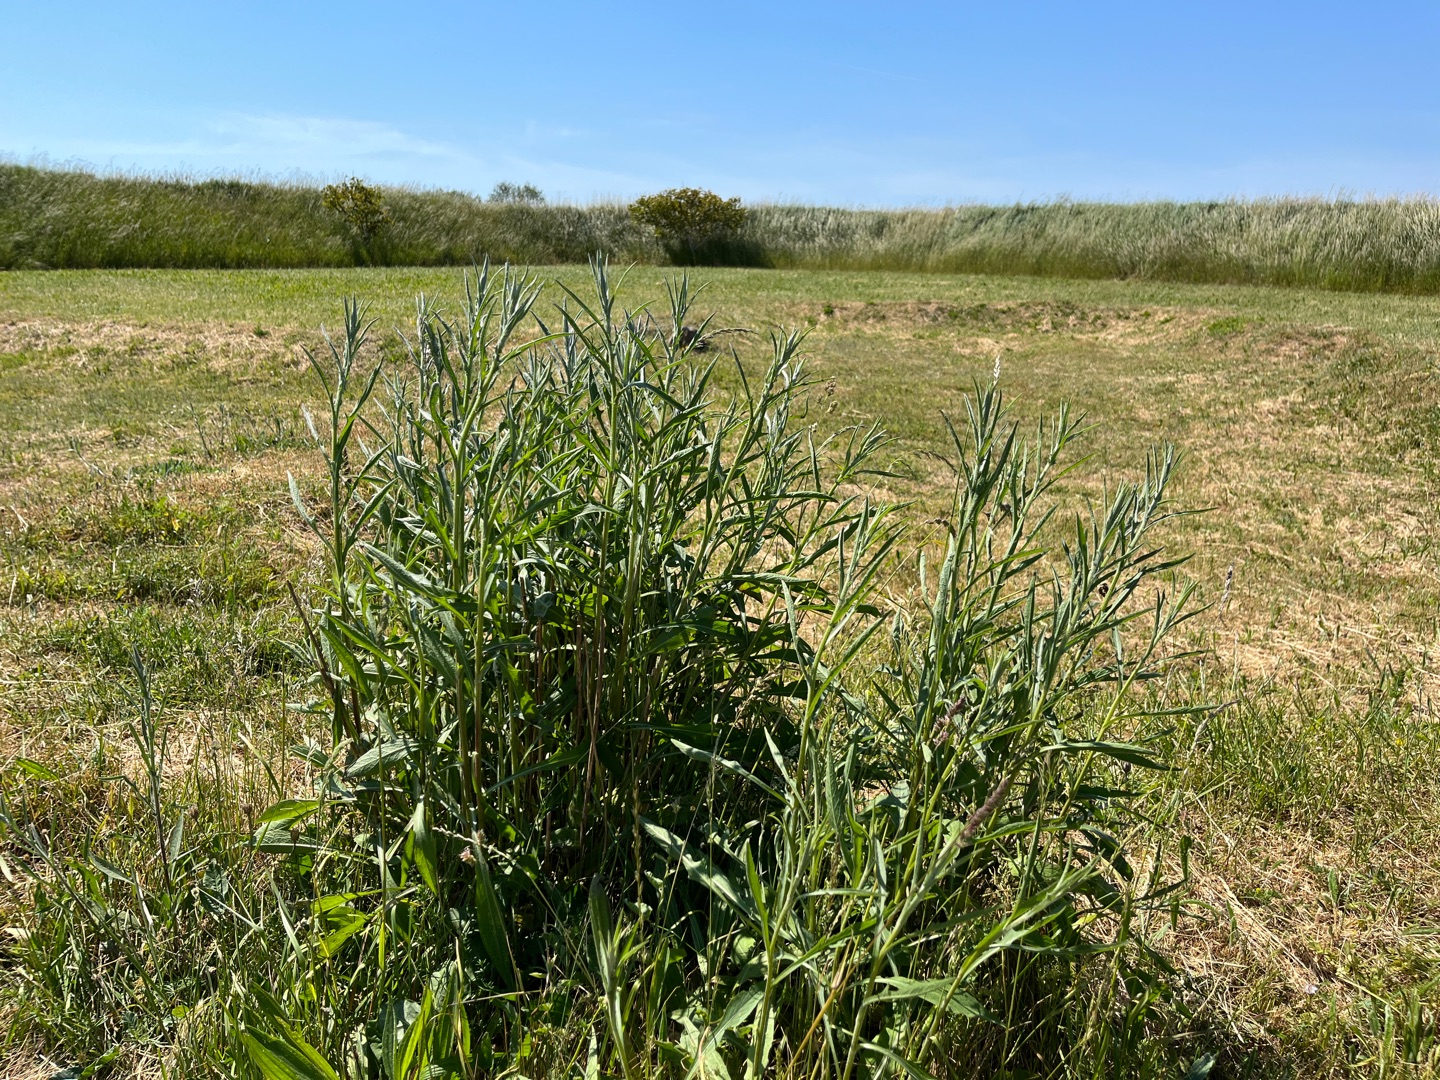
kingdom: Plantae
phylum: Tracheophyta
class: Magnoliopsida
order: Asterales
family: Asteraceae
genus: Centaurea
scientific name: Centaurea jacea
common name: Almindelig knopurt
